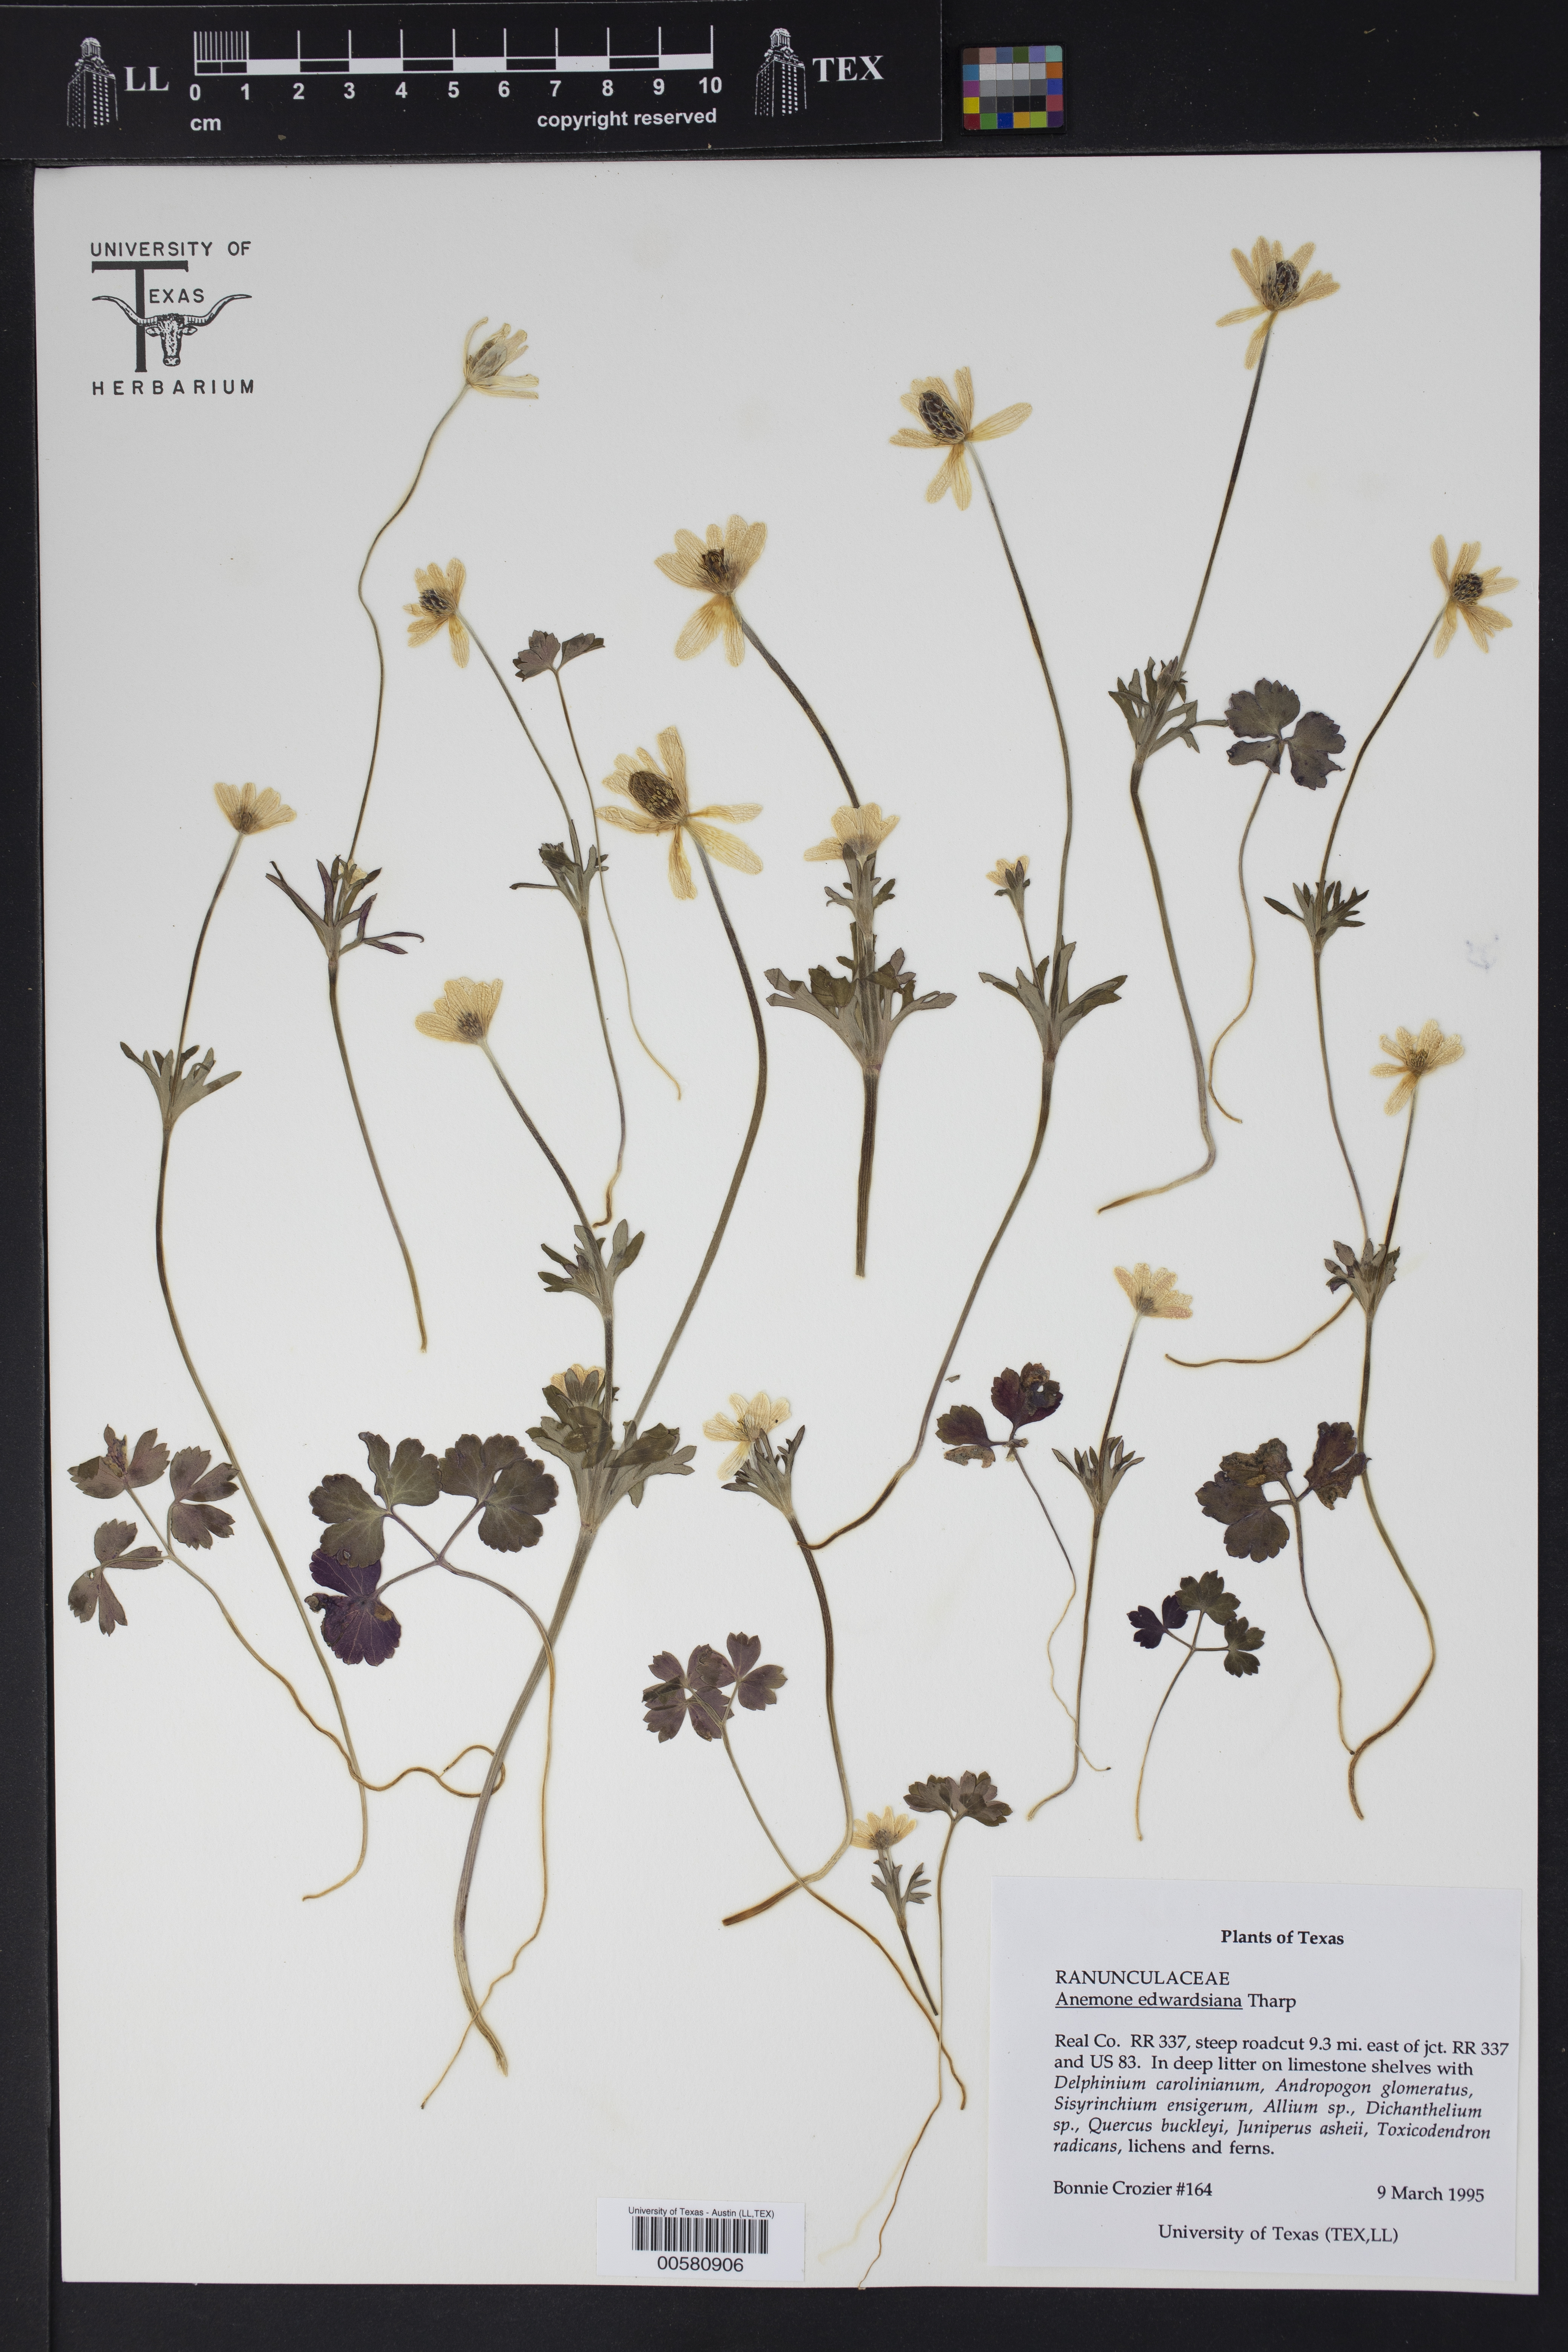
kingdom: Plantae
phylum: Tracheophyta
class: Magnoliopsida
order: Ranunculales
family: Ranunculaceae
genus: Anemone
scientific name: Anemone edwardsiana
